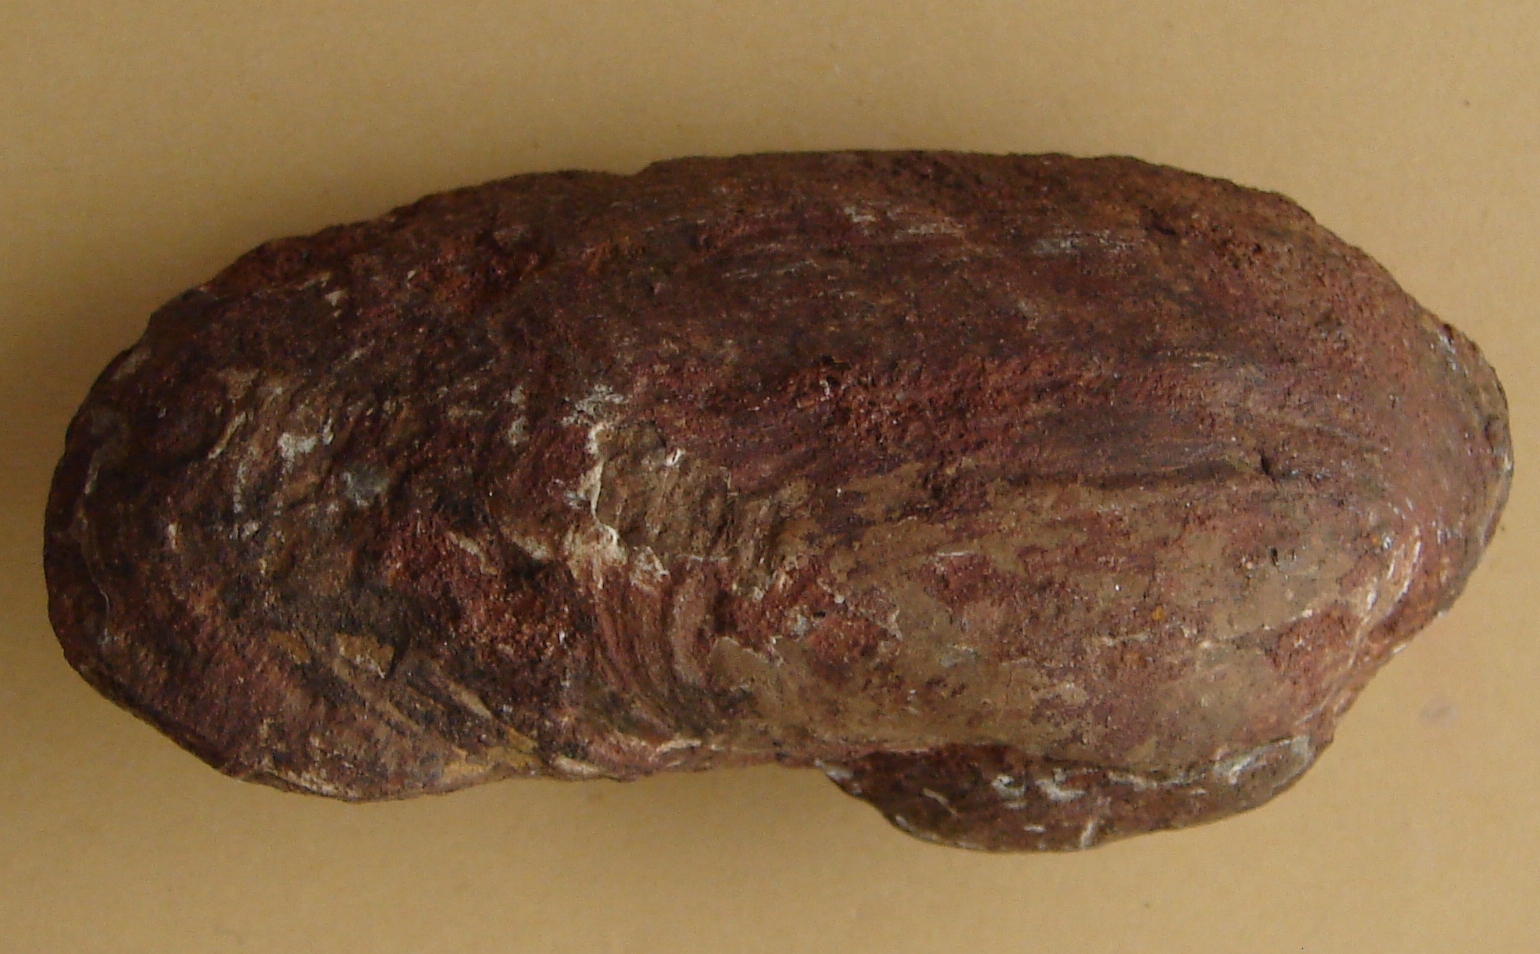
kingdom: Animalia
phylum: Mollusca
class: Bivalvia
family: Pholadomyidae
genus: Pholadomya
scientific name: Pholadomya fidicula
